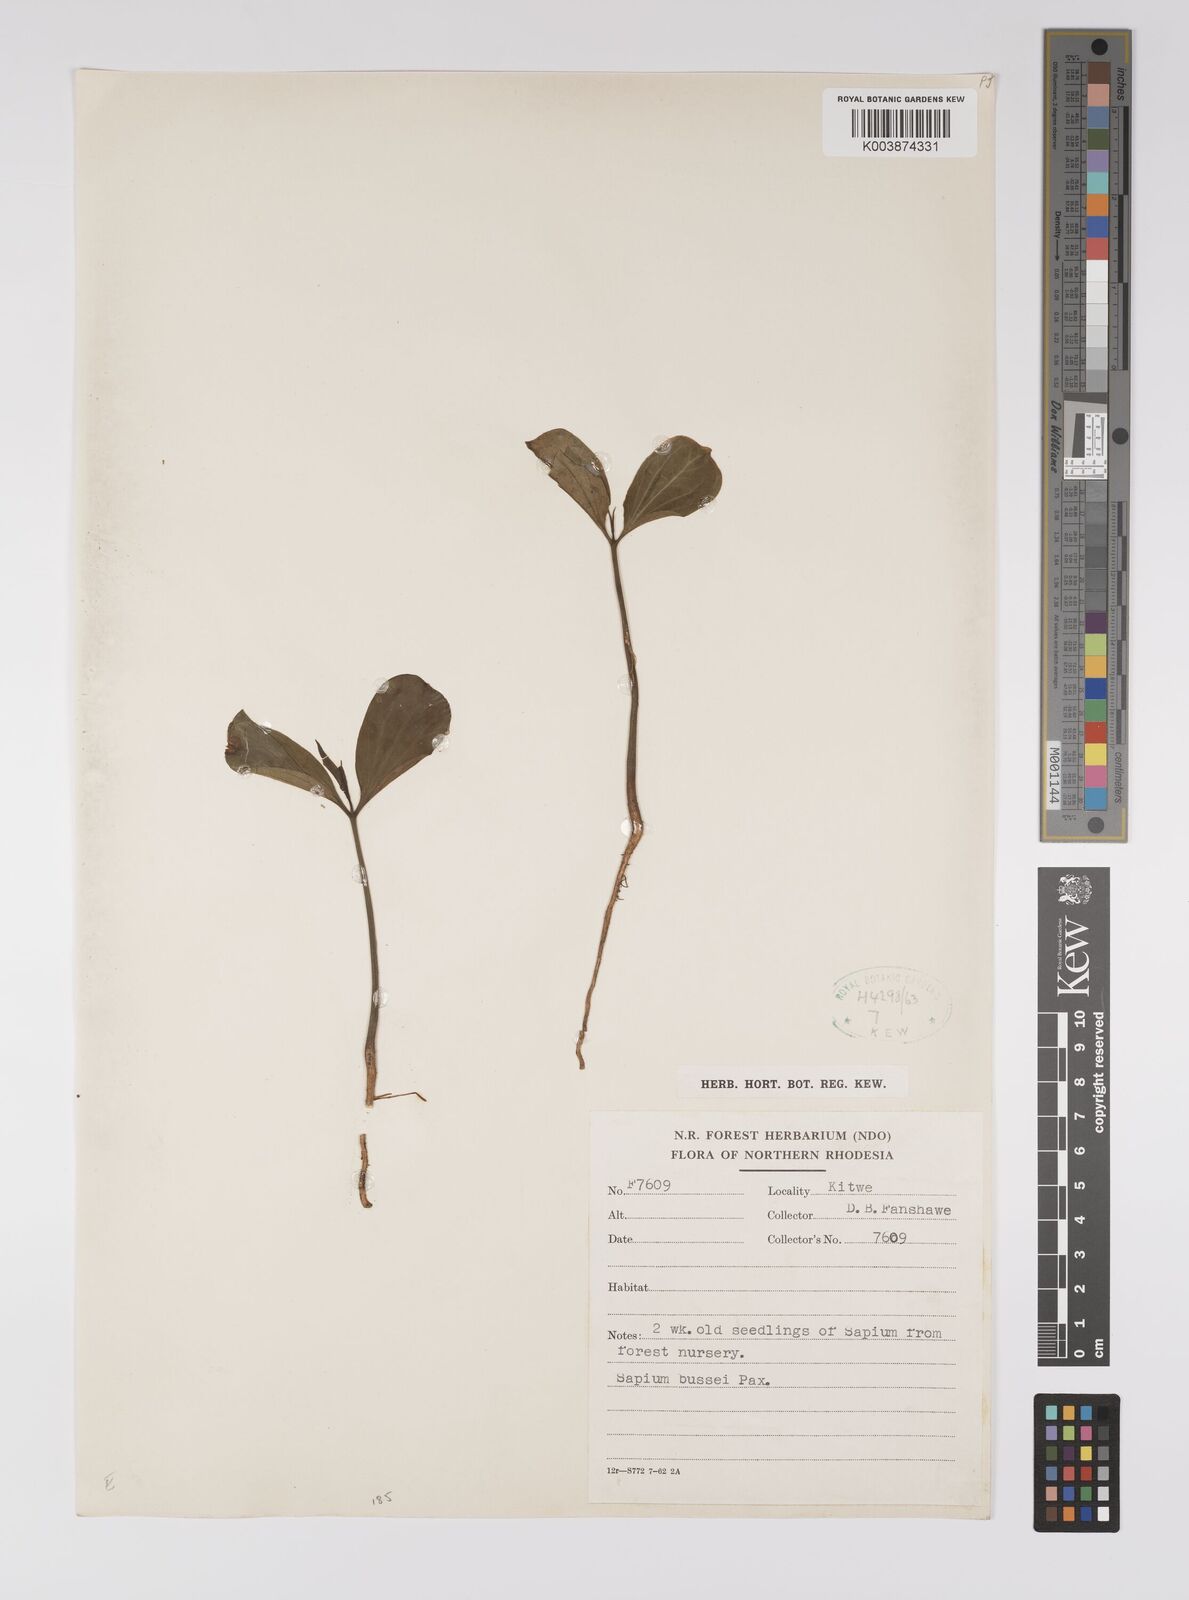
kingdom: Plantae
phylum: Tracheophyta
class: Magnoliopsida
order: Malpighiales
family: Euphorbiaceae
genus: Excoecaria
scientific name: Excoecaria bussei
